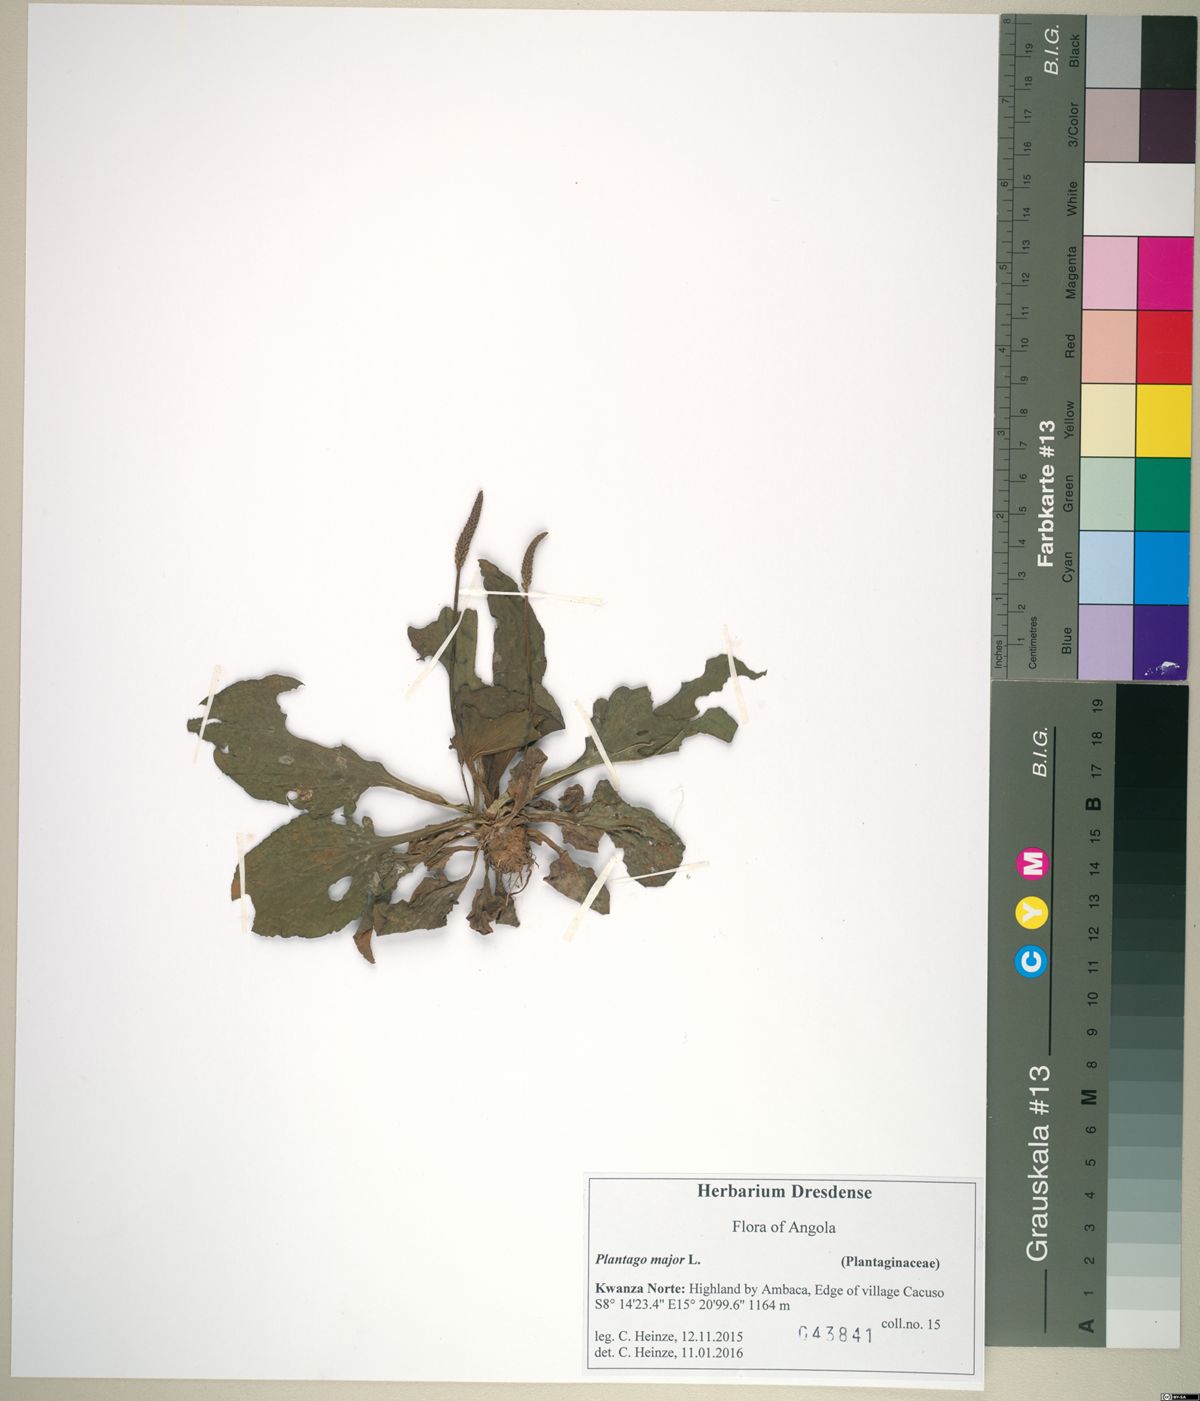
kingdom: Plantae
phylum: Tracheophyta
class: Magnoliopsida
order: Lamiales
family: Plantaginaceae
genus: Plantago
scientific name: Plantago major
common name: Common plantain
